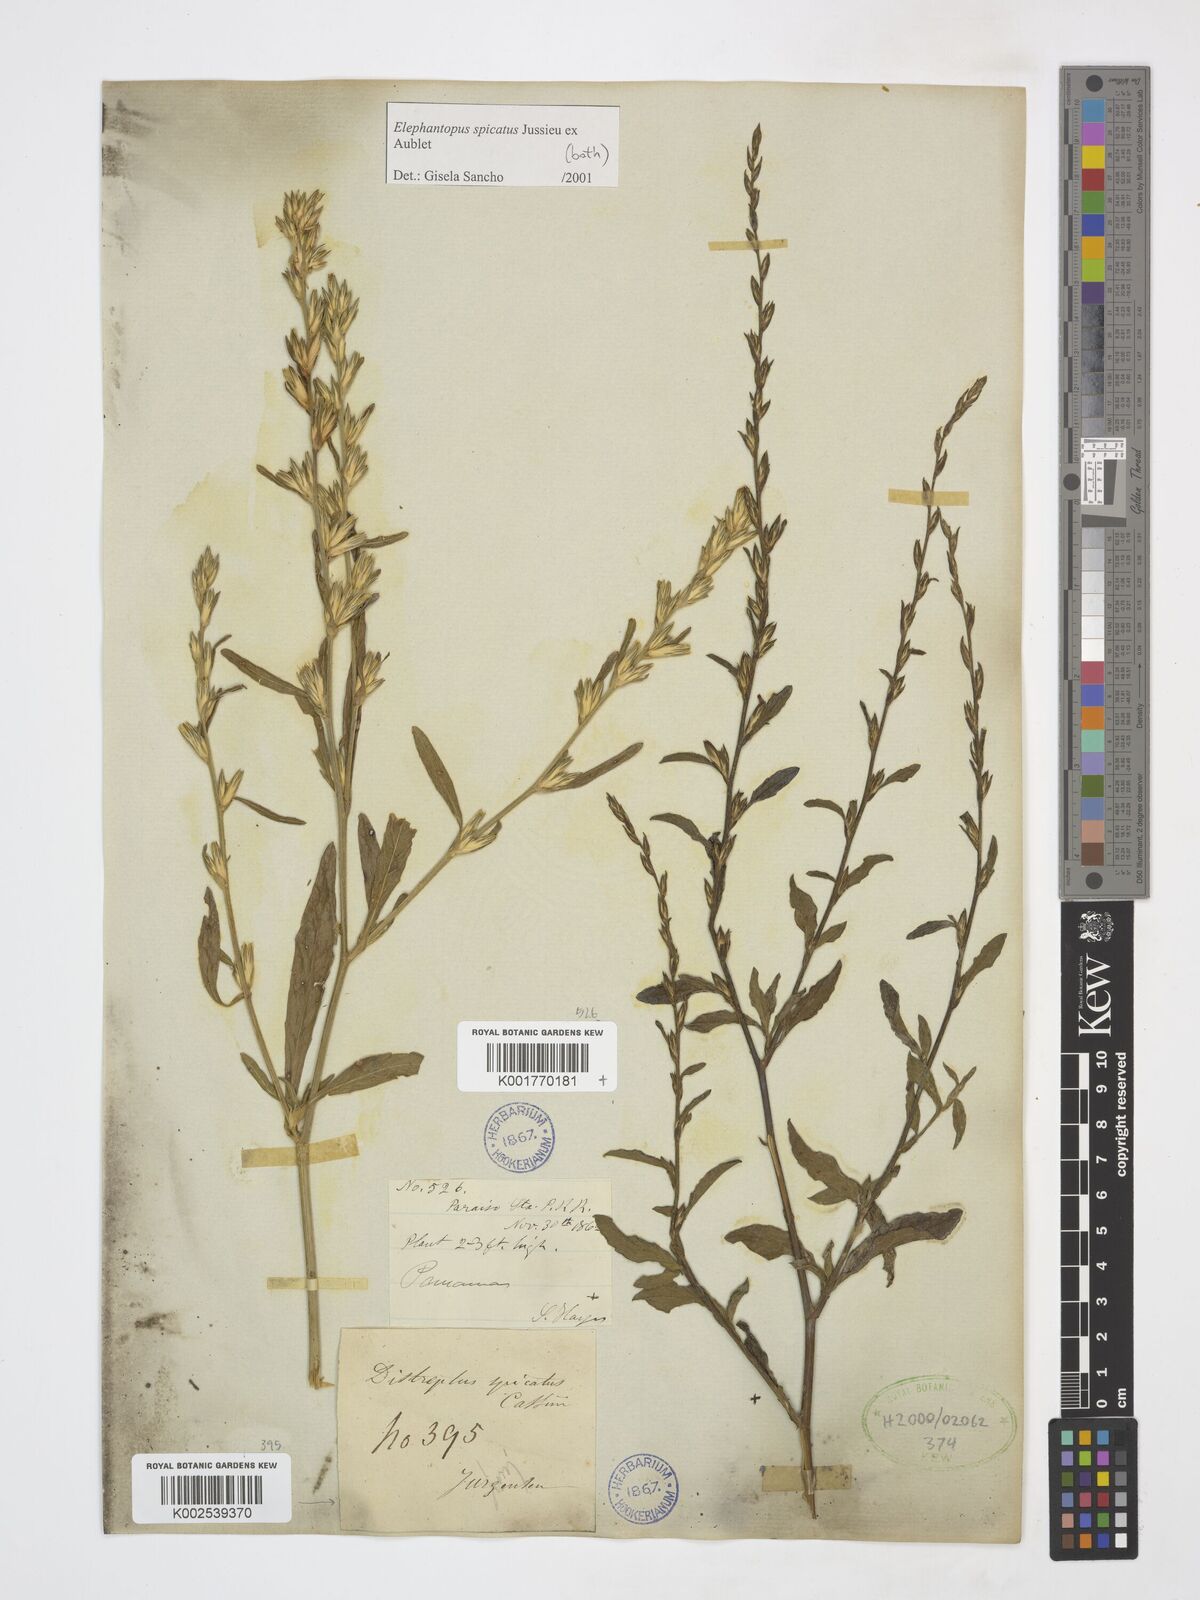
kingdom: Plantae
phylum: Tracheophyta
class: Magnoliopsida
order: Asterales
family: Asteraceae
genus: Pseudelephantopus
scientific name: Pseudelephantopus spicatus
